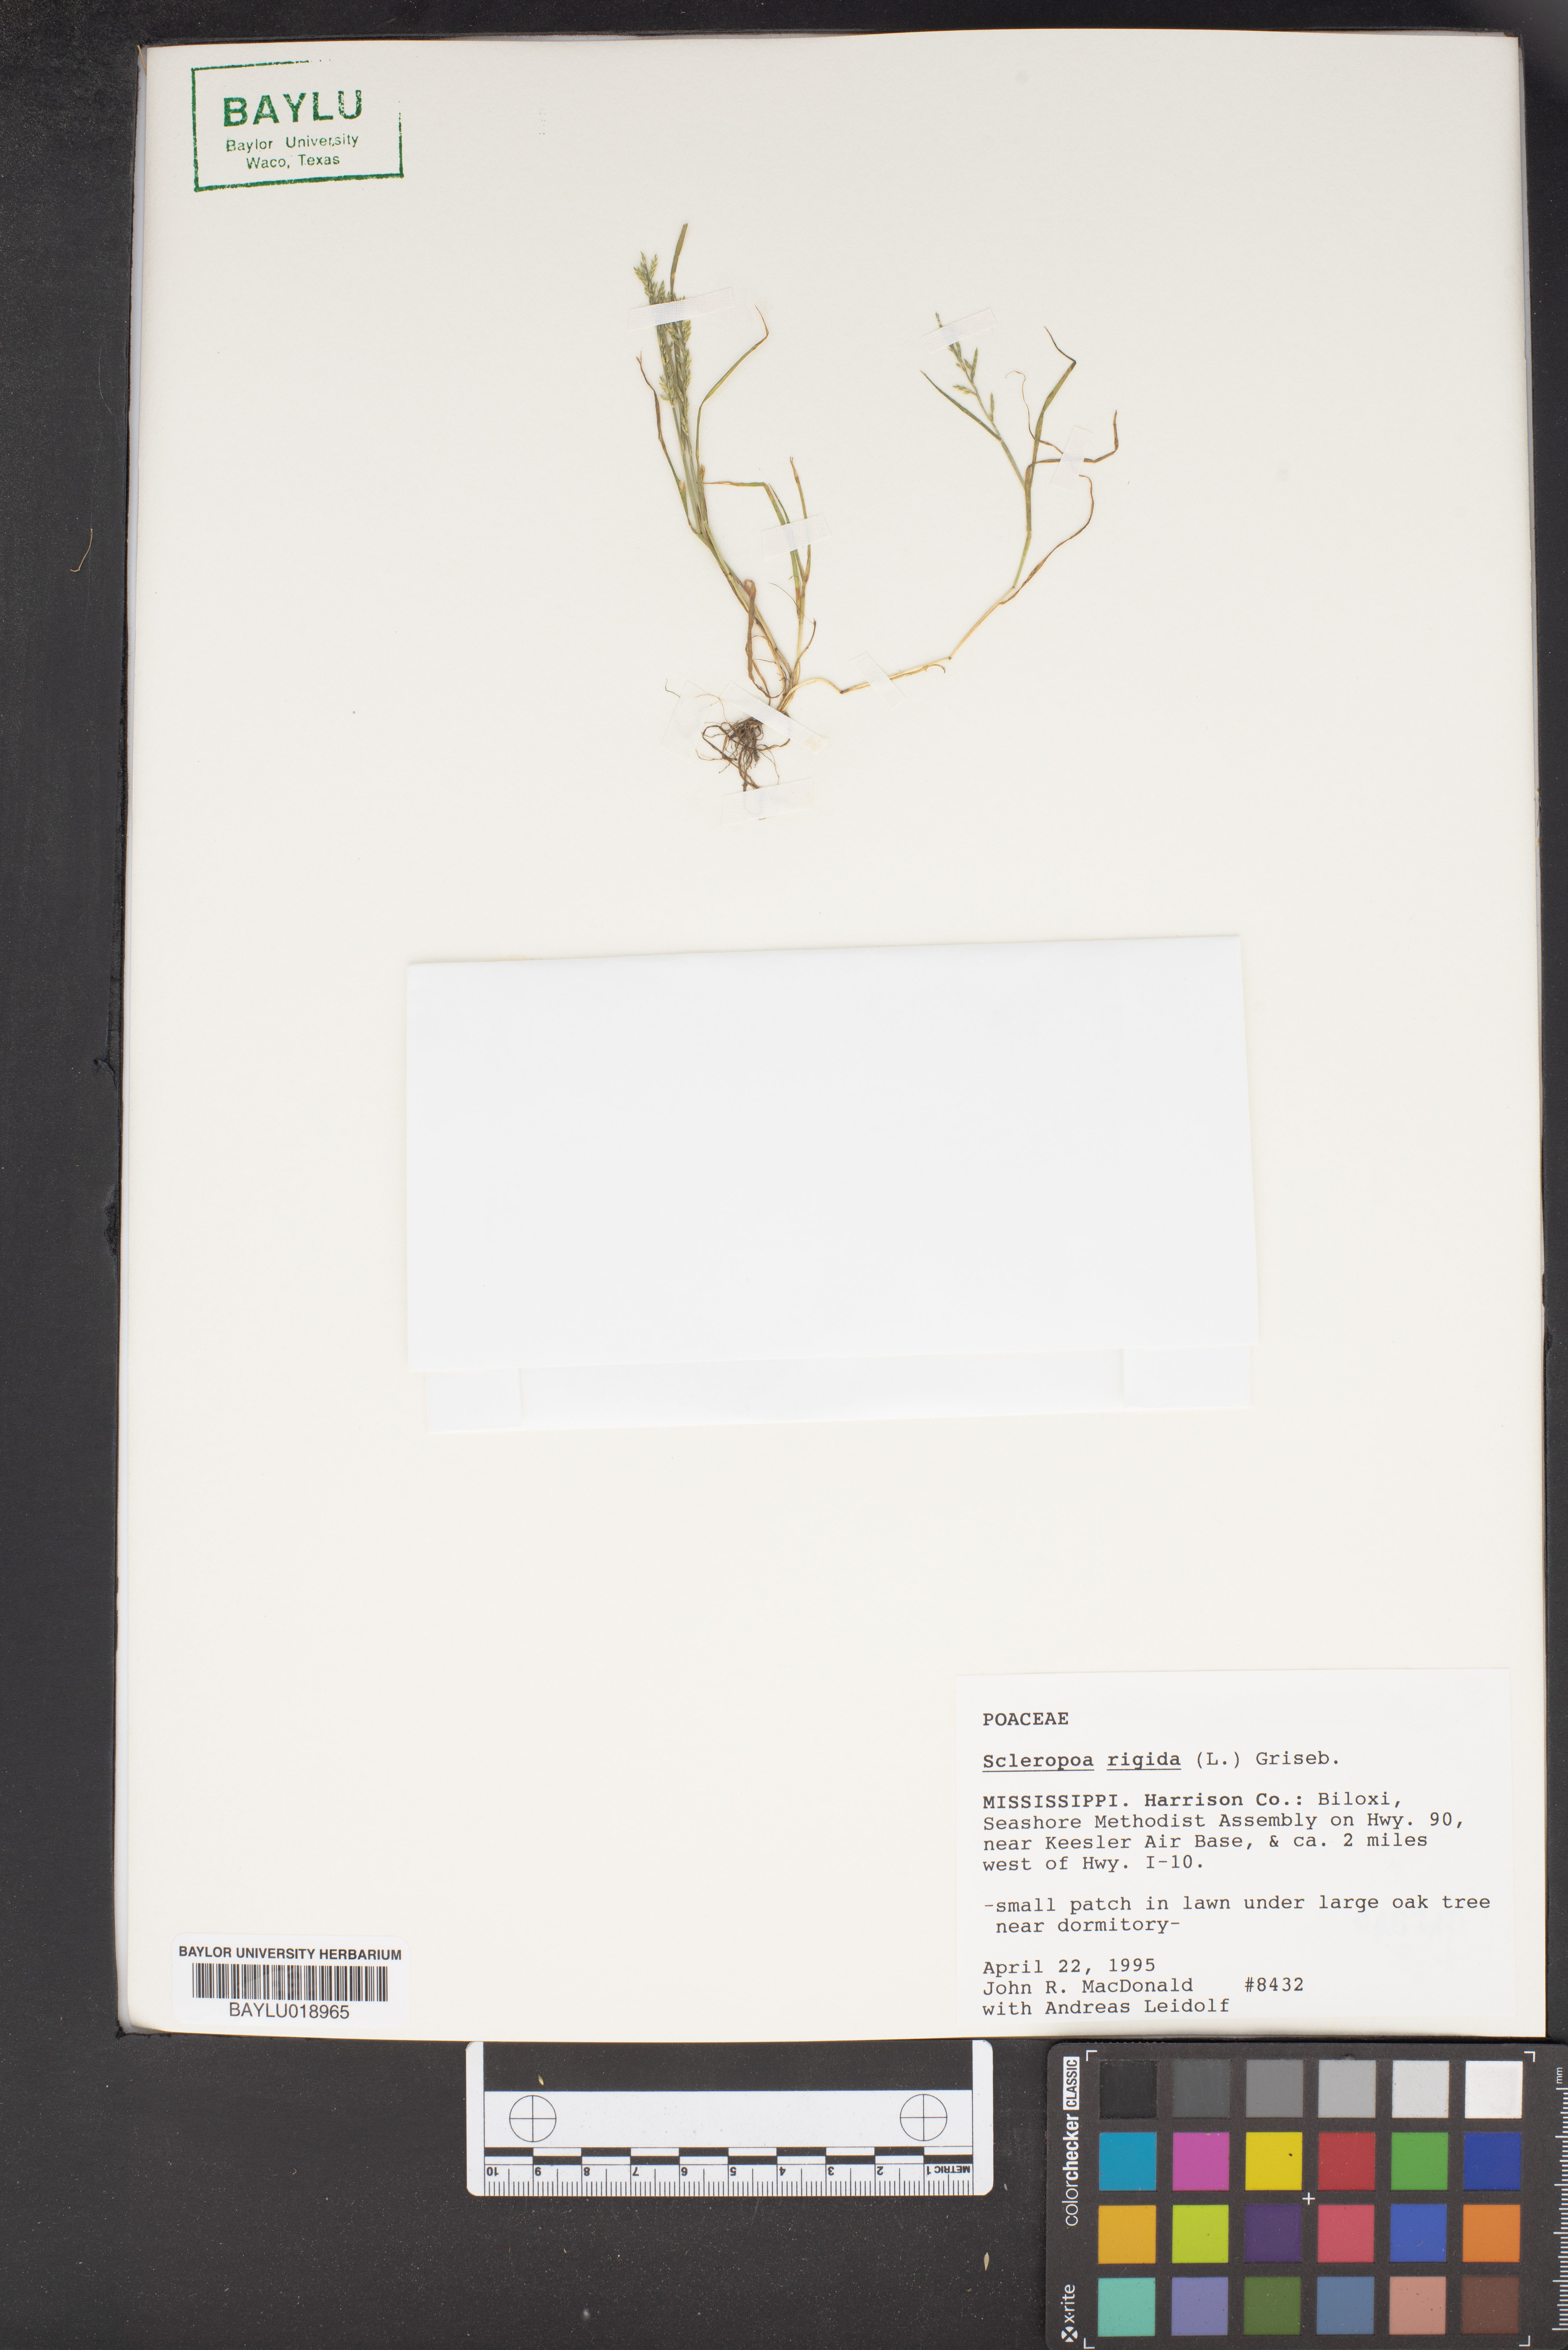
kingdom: Plantae
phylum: Tracheophyta
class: Liliopsida
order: Poales
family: Poaceae
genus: Catapodium
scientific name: Catapodium rigidum
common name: Fern-grass
